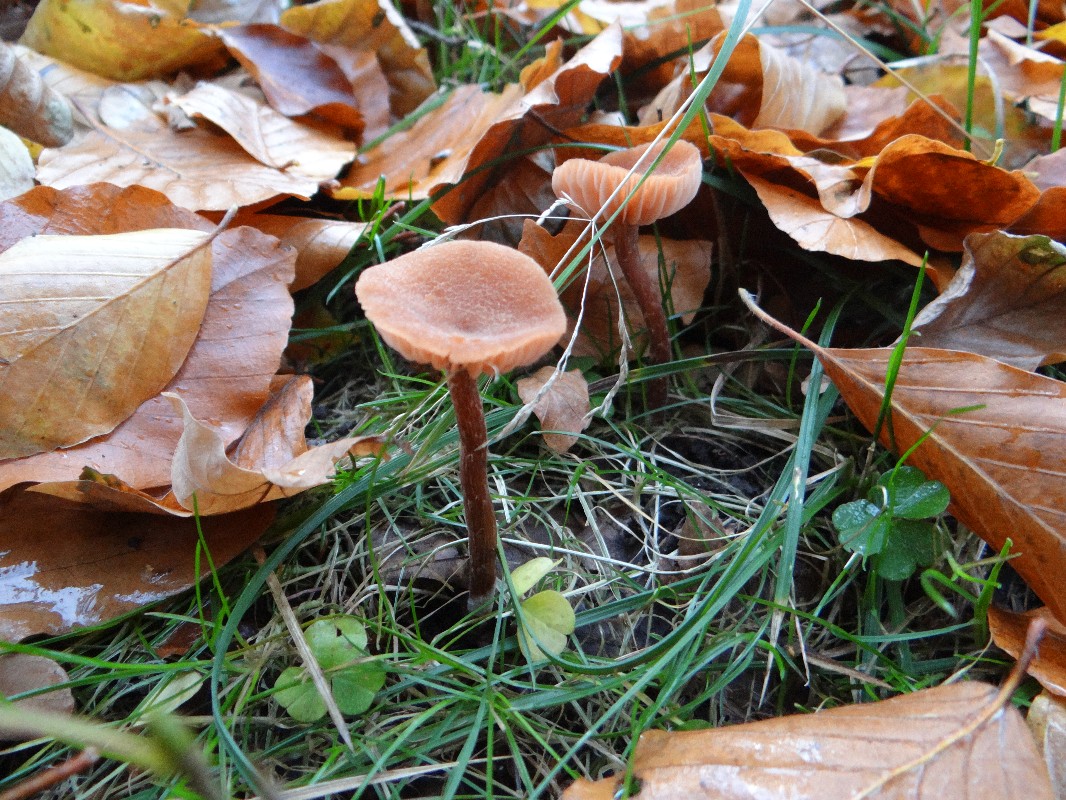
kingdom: Fungi
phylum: Basidiomycota
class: Agaricomycetes
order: Agaricales
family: Hydnangiaceae
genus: Laccaria
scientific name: Laccaria laccata
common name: rød ametysthat
